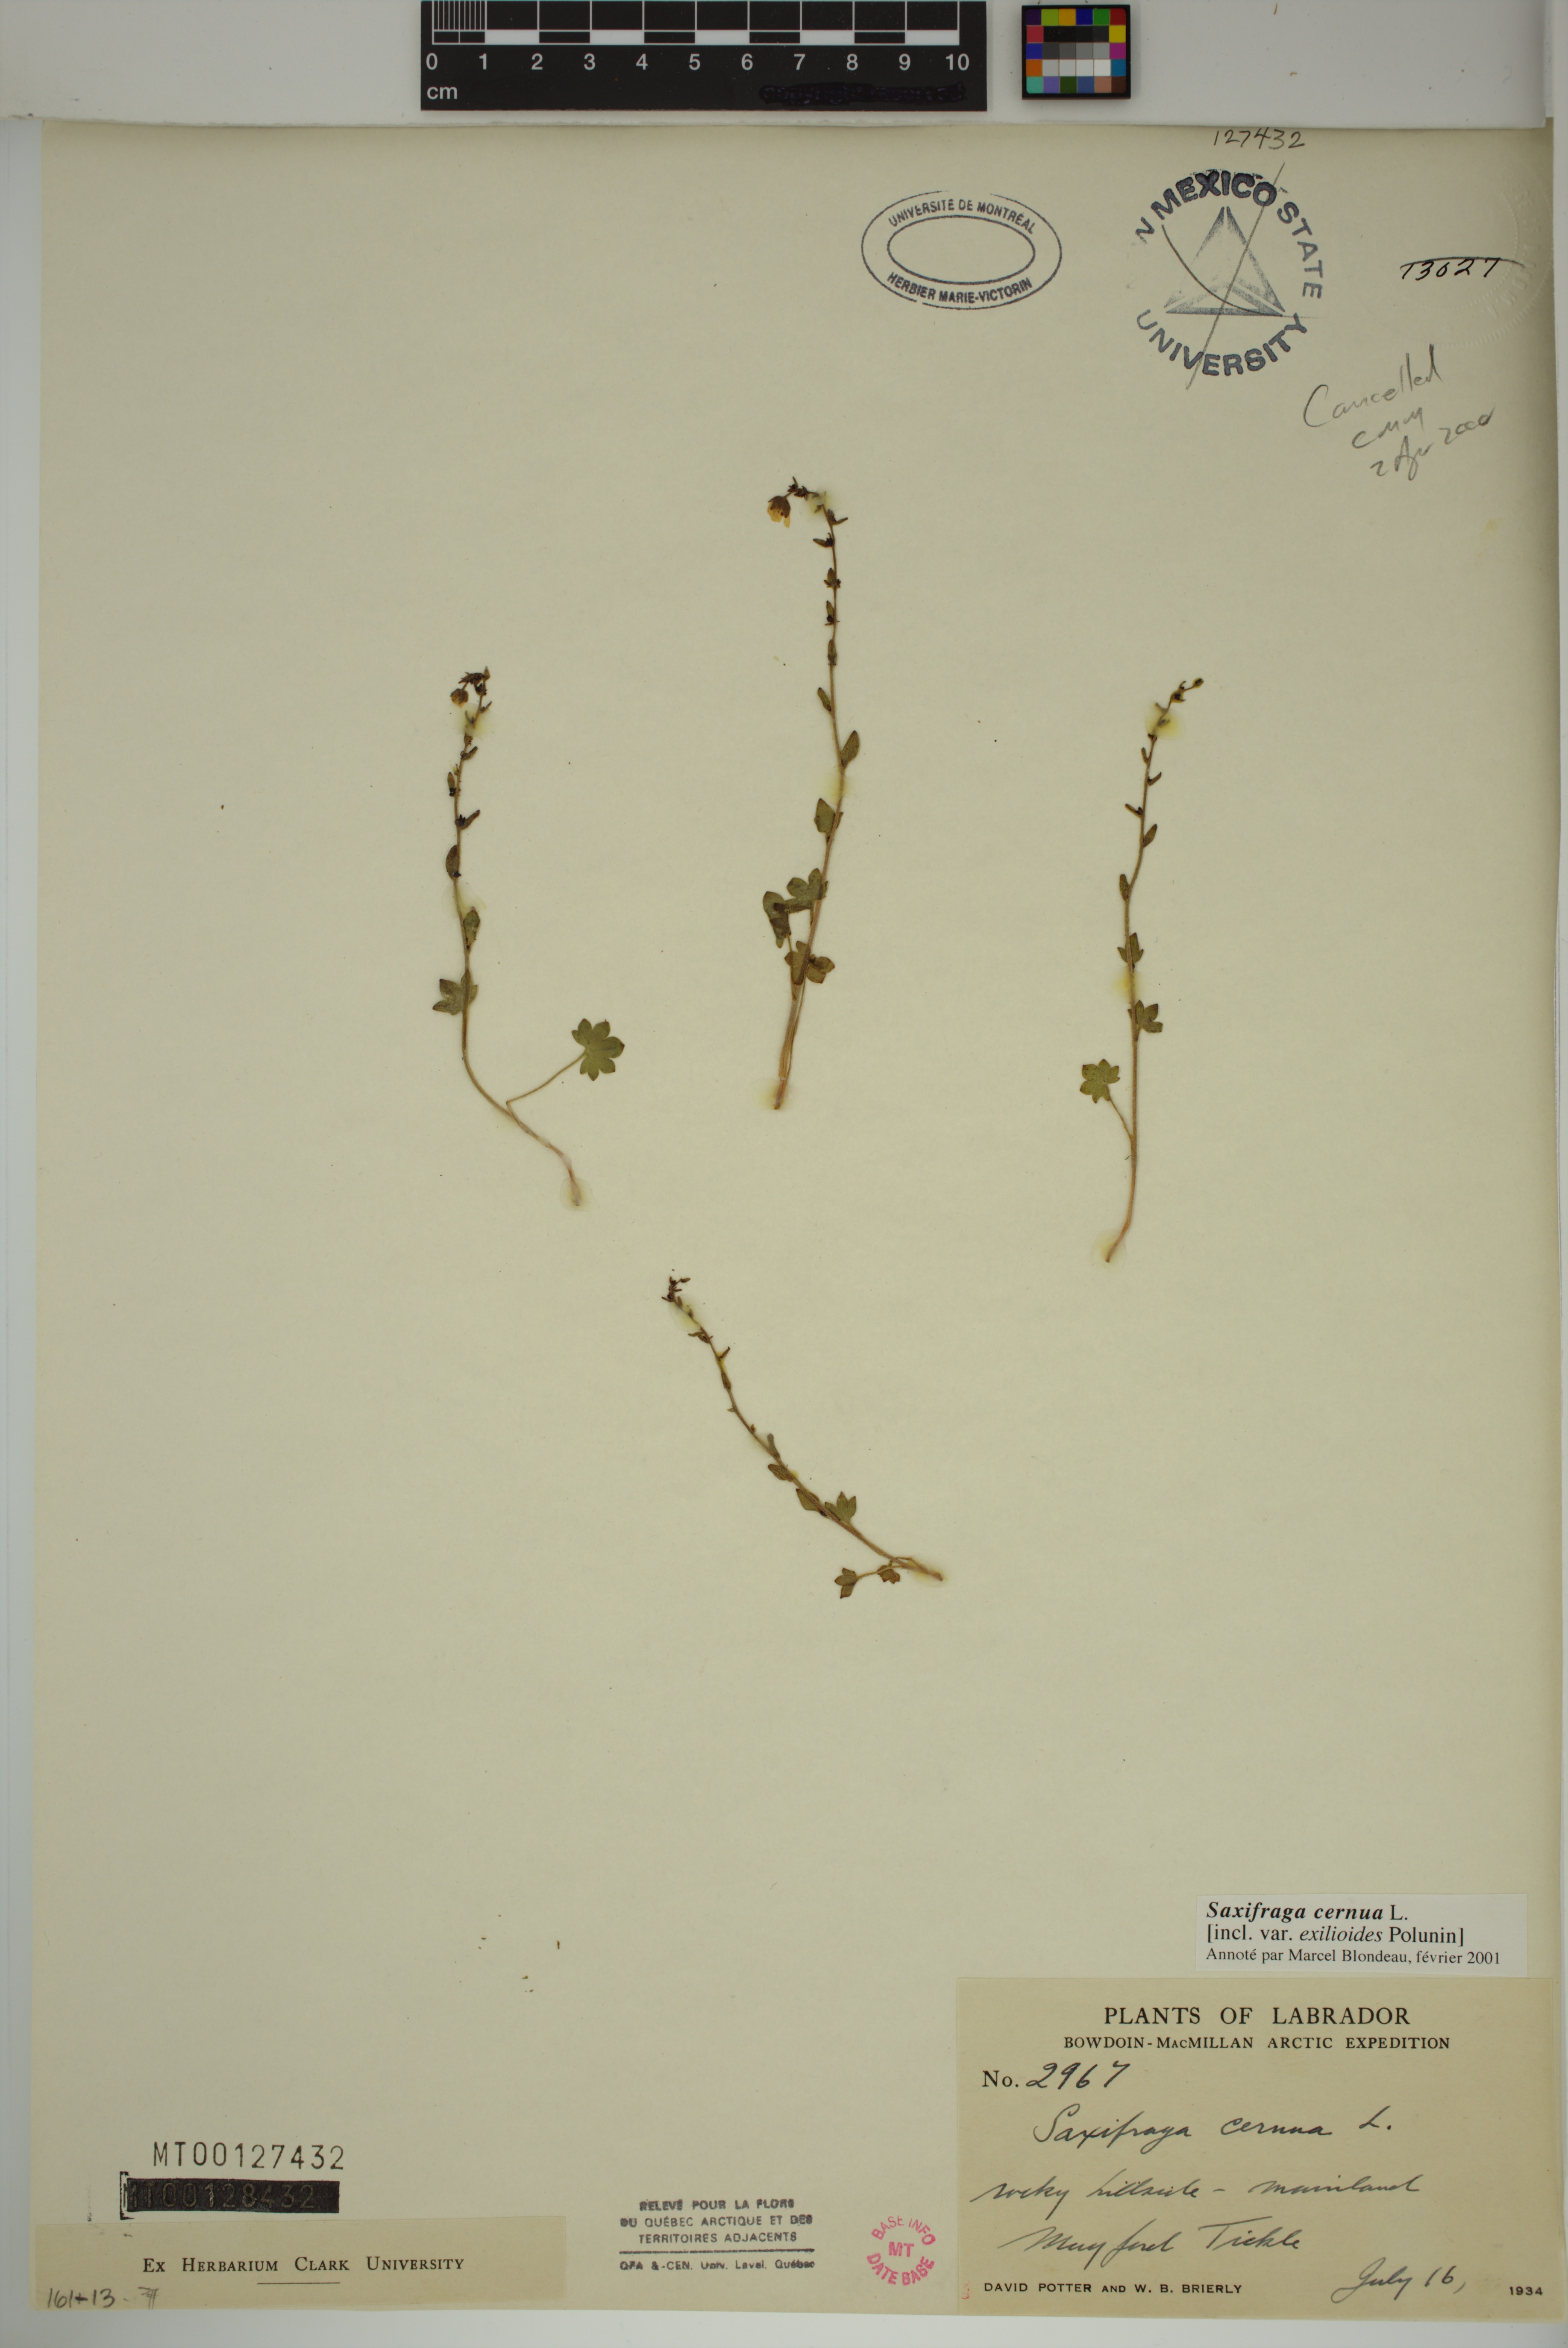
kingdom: Plantae
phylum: Tracheophyta
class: Magnoliopsida
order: Saxifragales
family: Saxifragaceae
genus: Saxifraga
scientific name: Saxifraga cernua
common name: Drooping saxifrage
